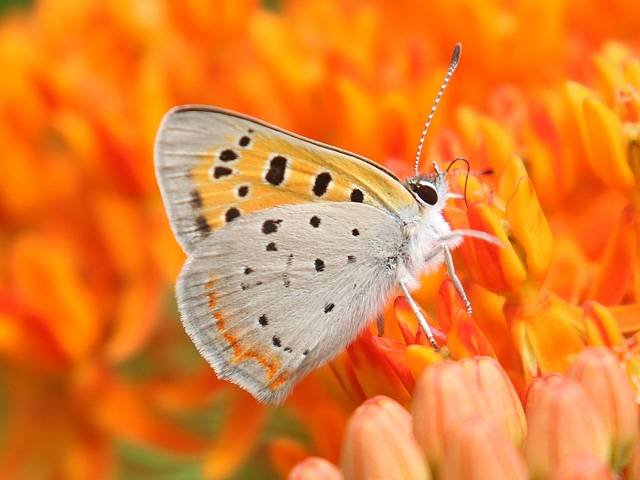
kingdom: Animalia
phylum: Arthropoda
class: Insecta
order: Lepidoptera
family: Lycaenidae
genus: Lycaena
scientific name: Lycaena phlaeas
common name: American Copper
